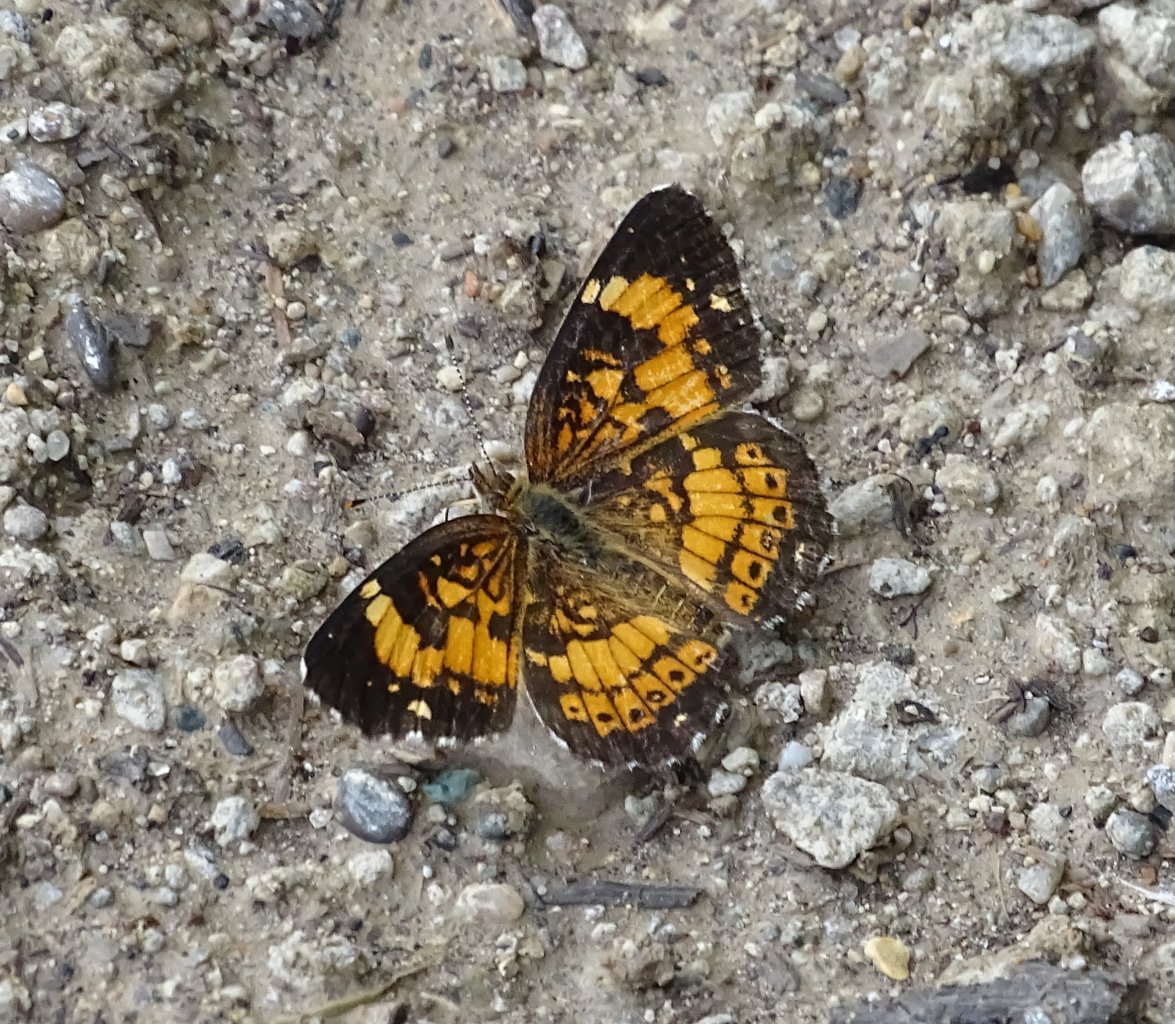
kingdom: Animalia
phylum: Arthropoda
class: Insecta
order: Lepidoptera
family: Nymphalidae
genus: Chlosyne
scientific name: Chlosyne nycteis
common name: Silvery Checkerspot
